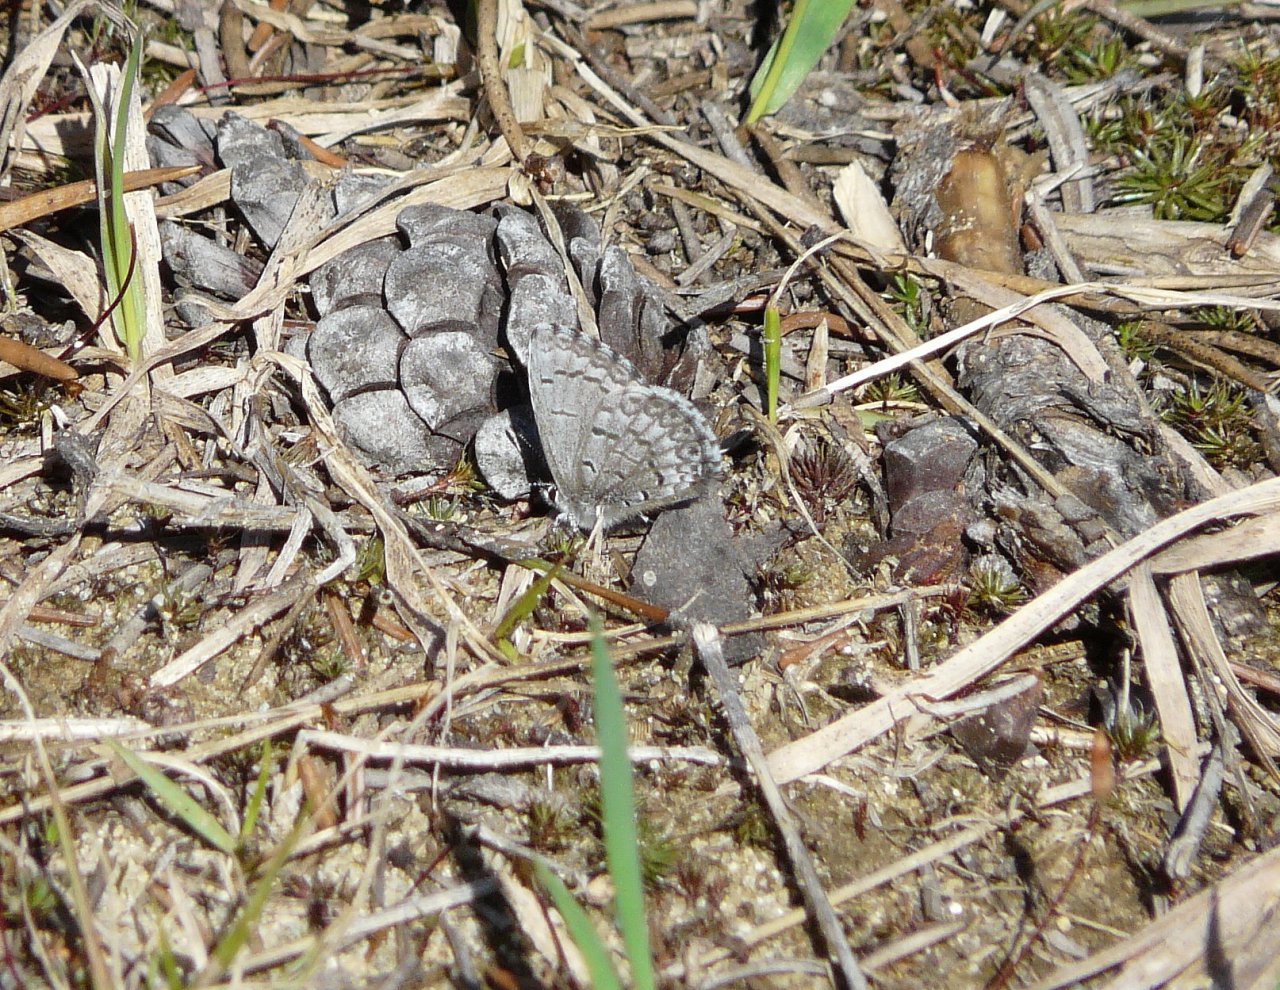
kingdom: Animalia
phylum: Arthropoda
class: Insecta
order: Lepidoptera
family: Lycaenidae
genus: Celastrina
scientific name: Celastrina lucia
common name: Northern Spring Azure
